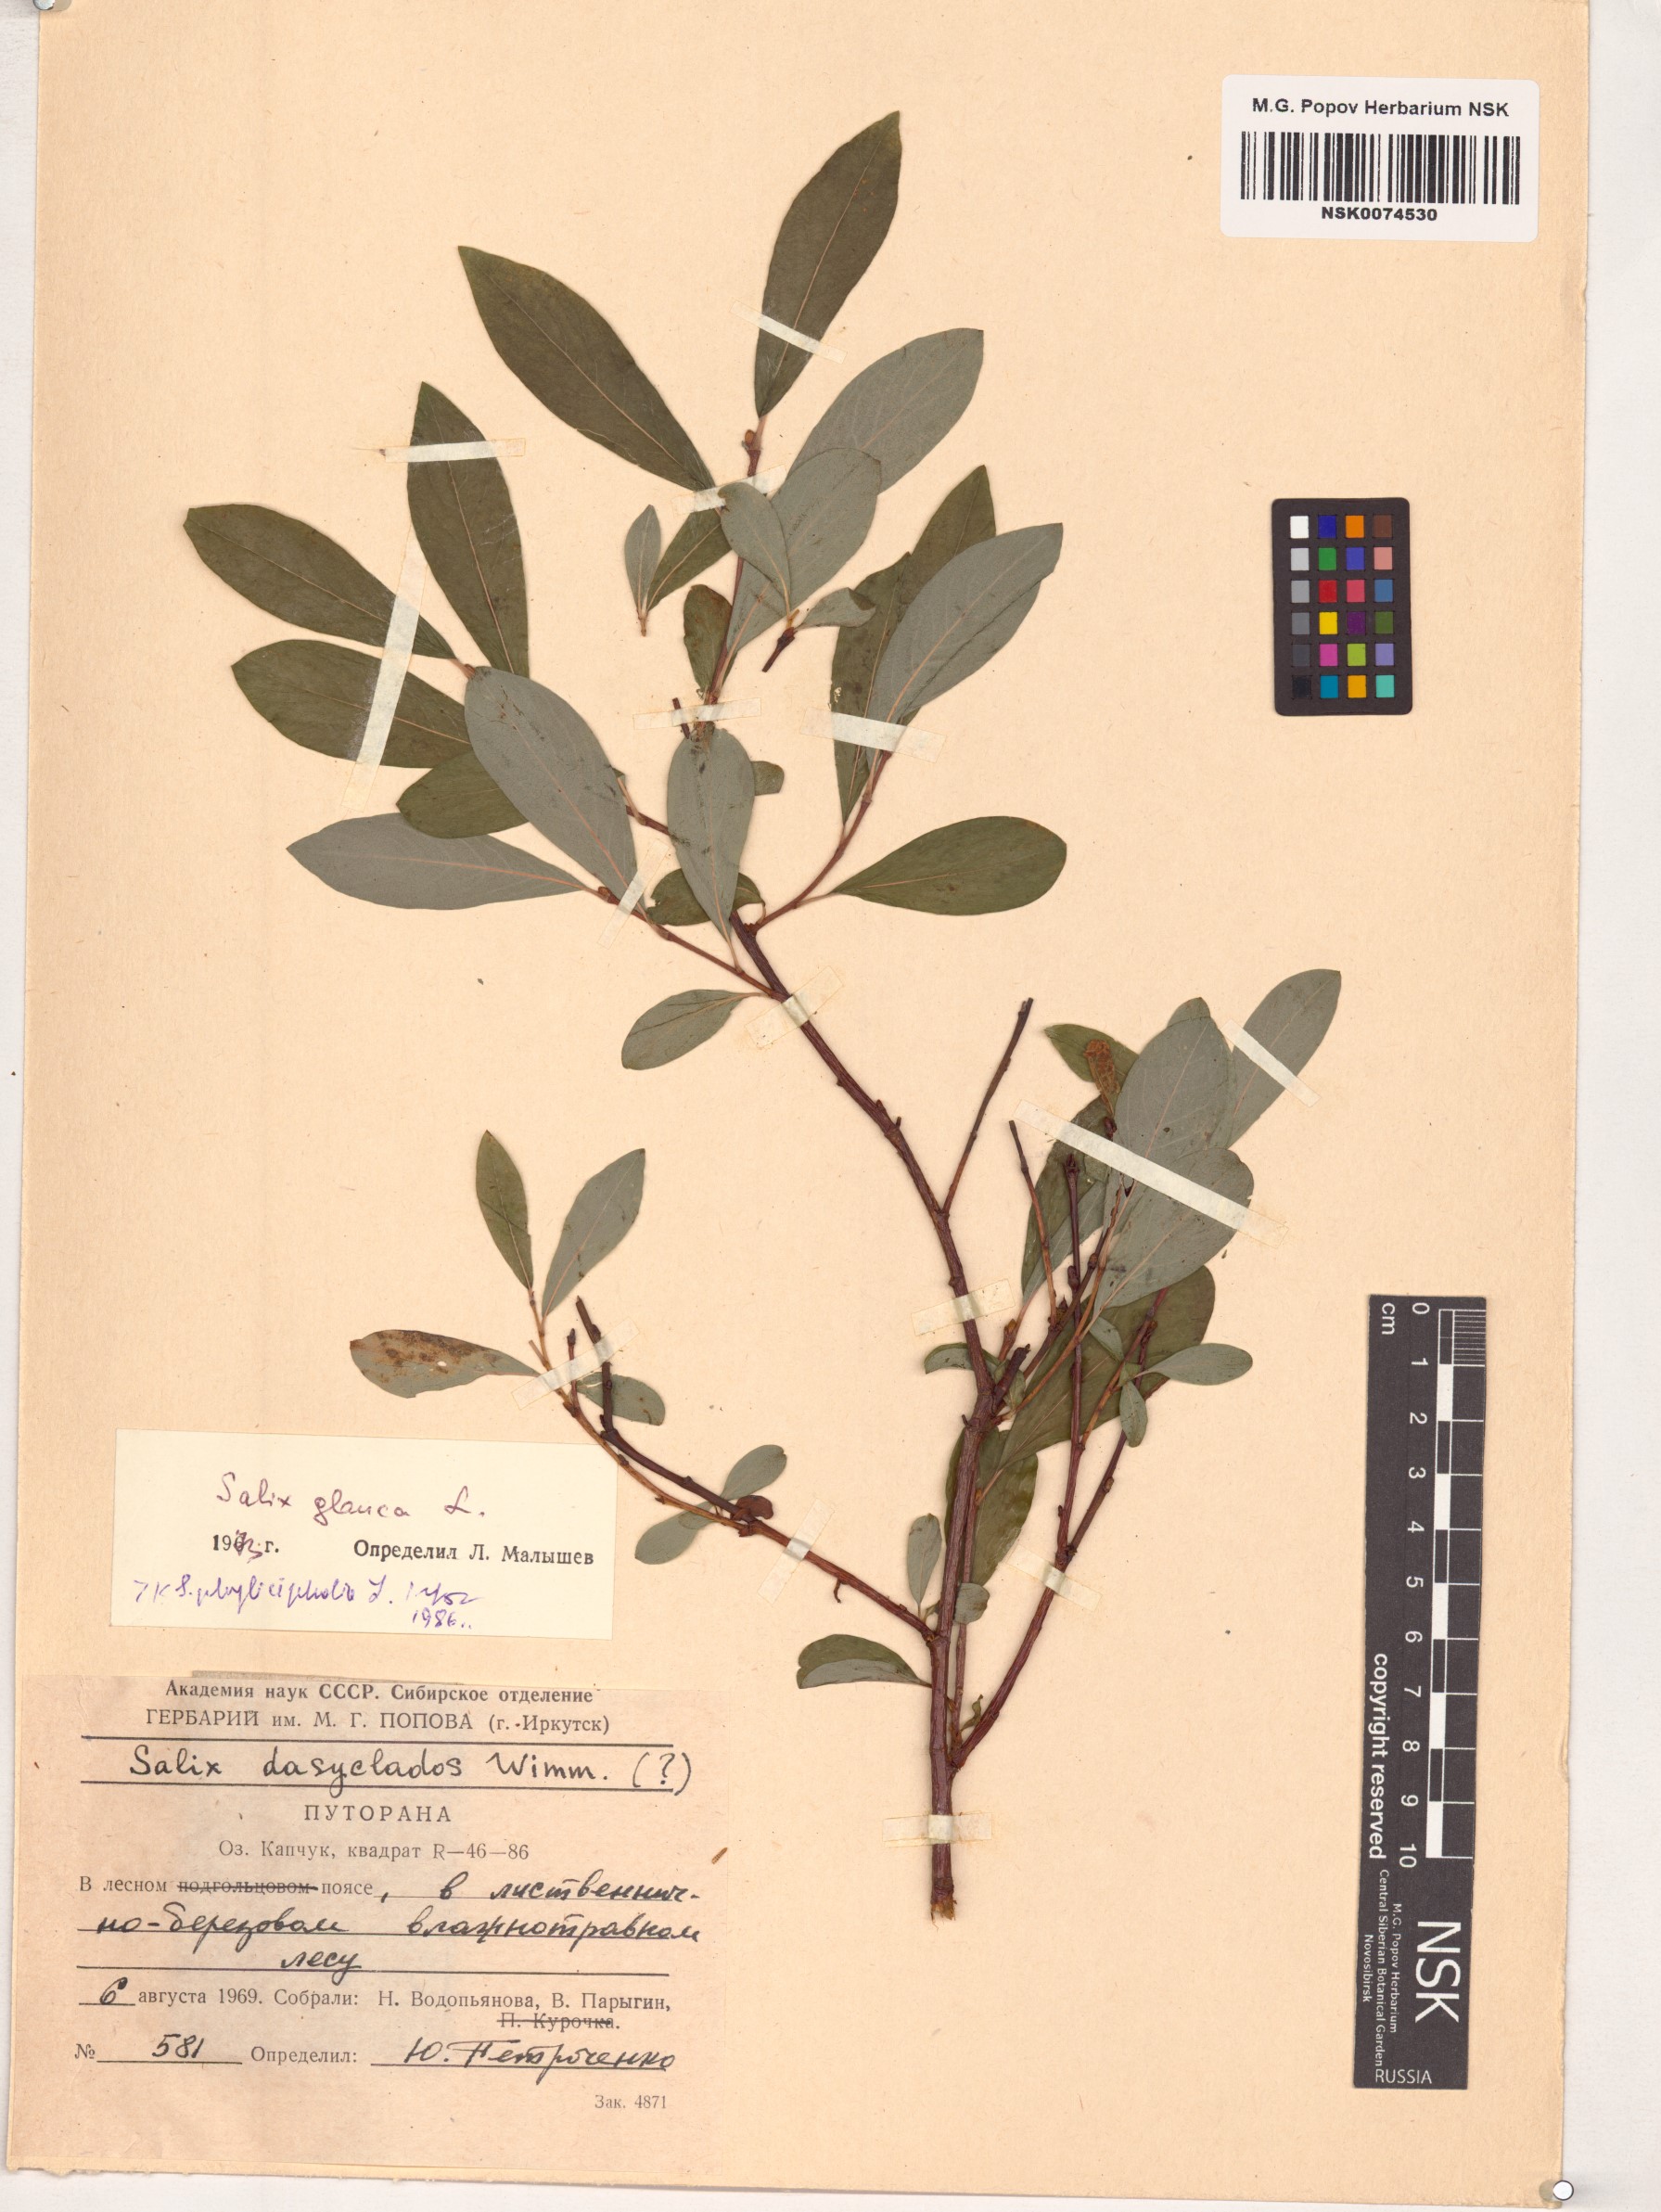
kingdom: Plantae
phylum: Tracheophyta
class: Magnoliopsida
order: Malpighiales
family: Salicaceae
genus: Salix
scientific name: Salix phylicifolia
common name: Tea-leaved willow
